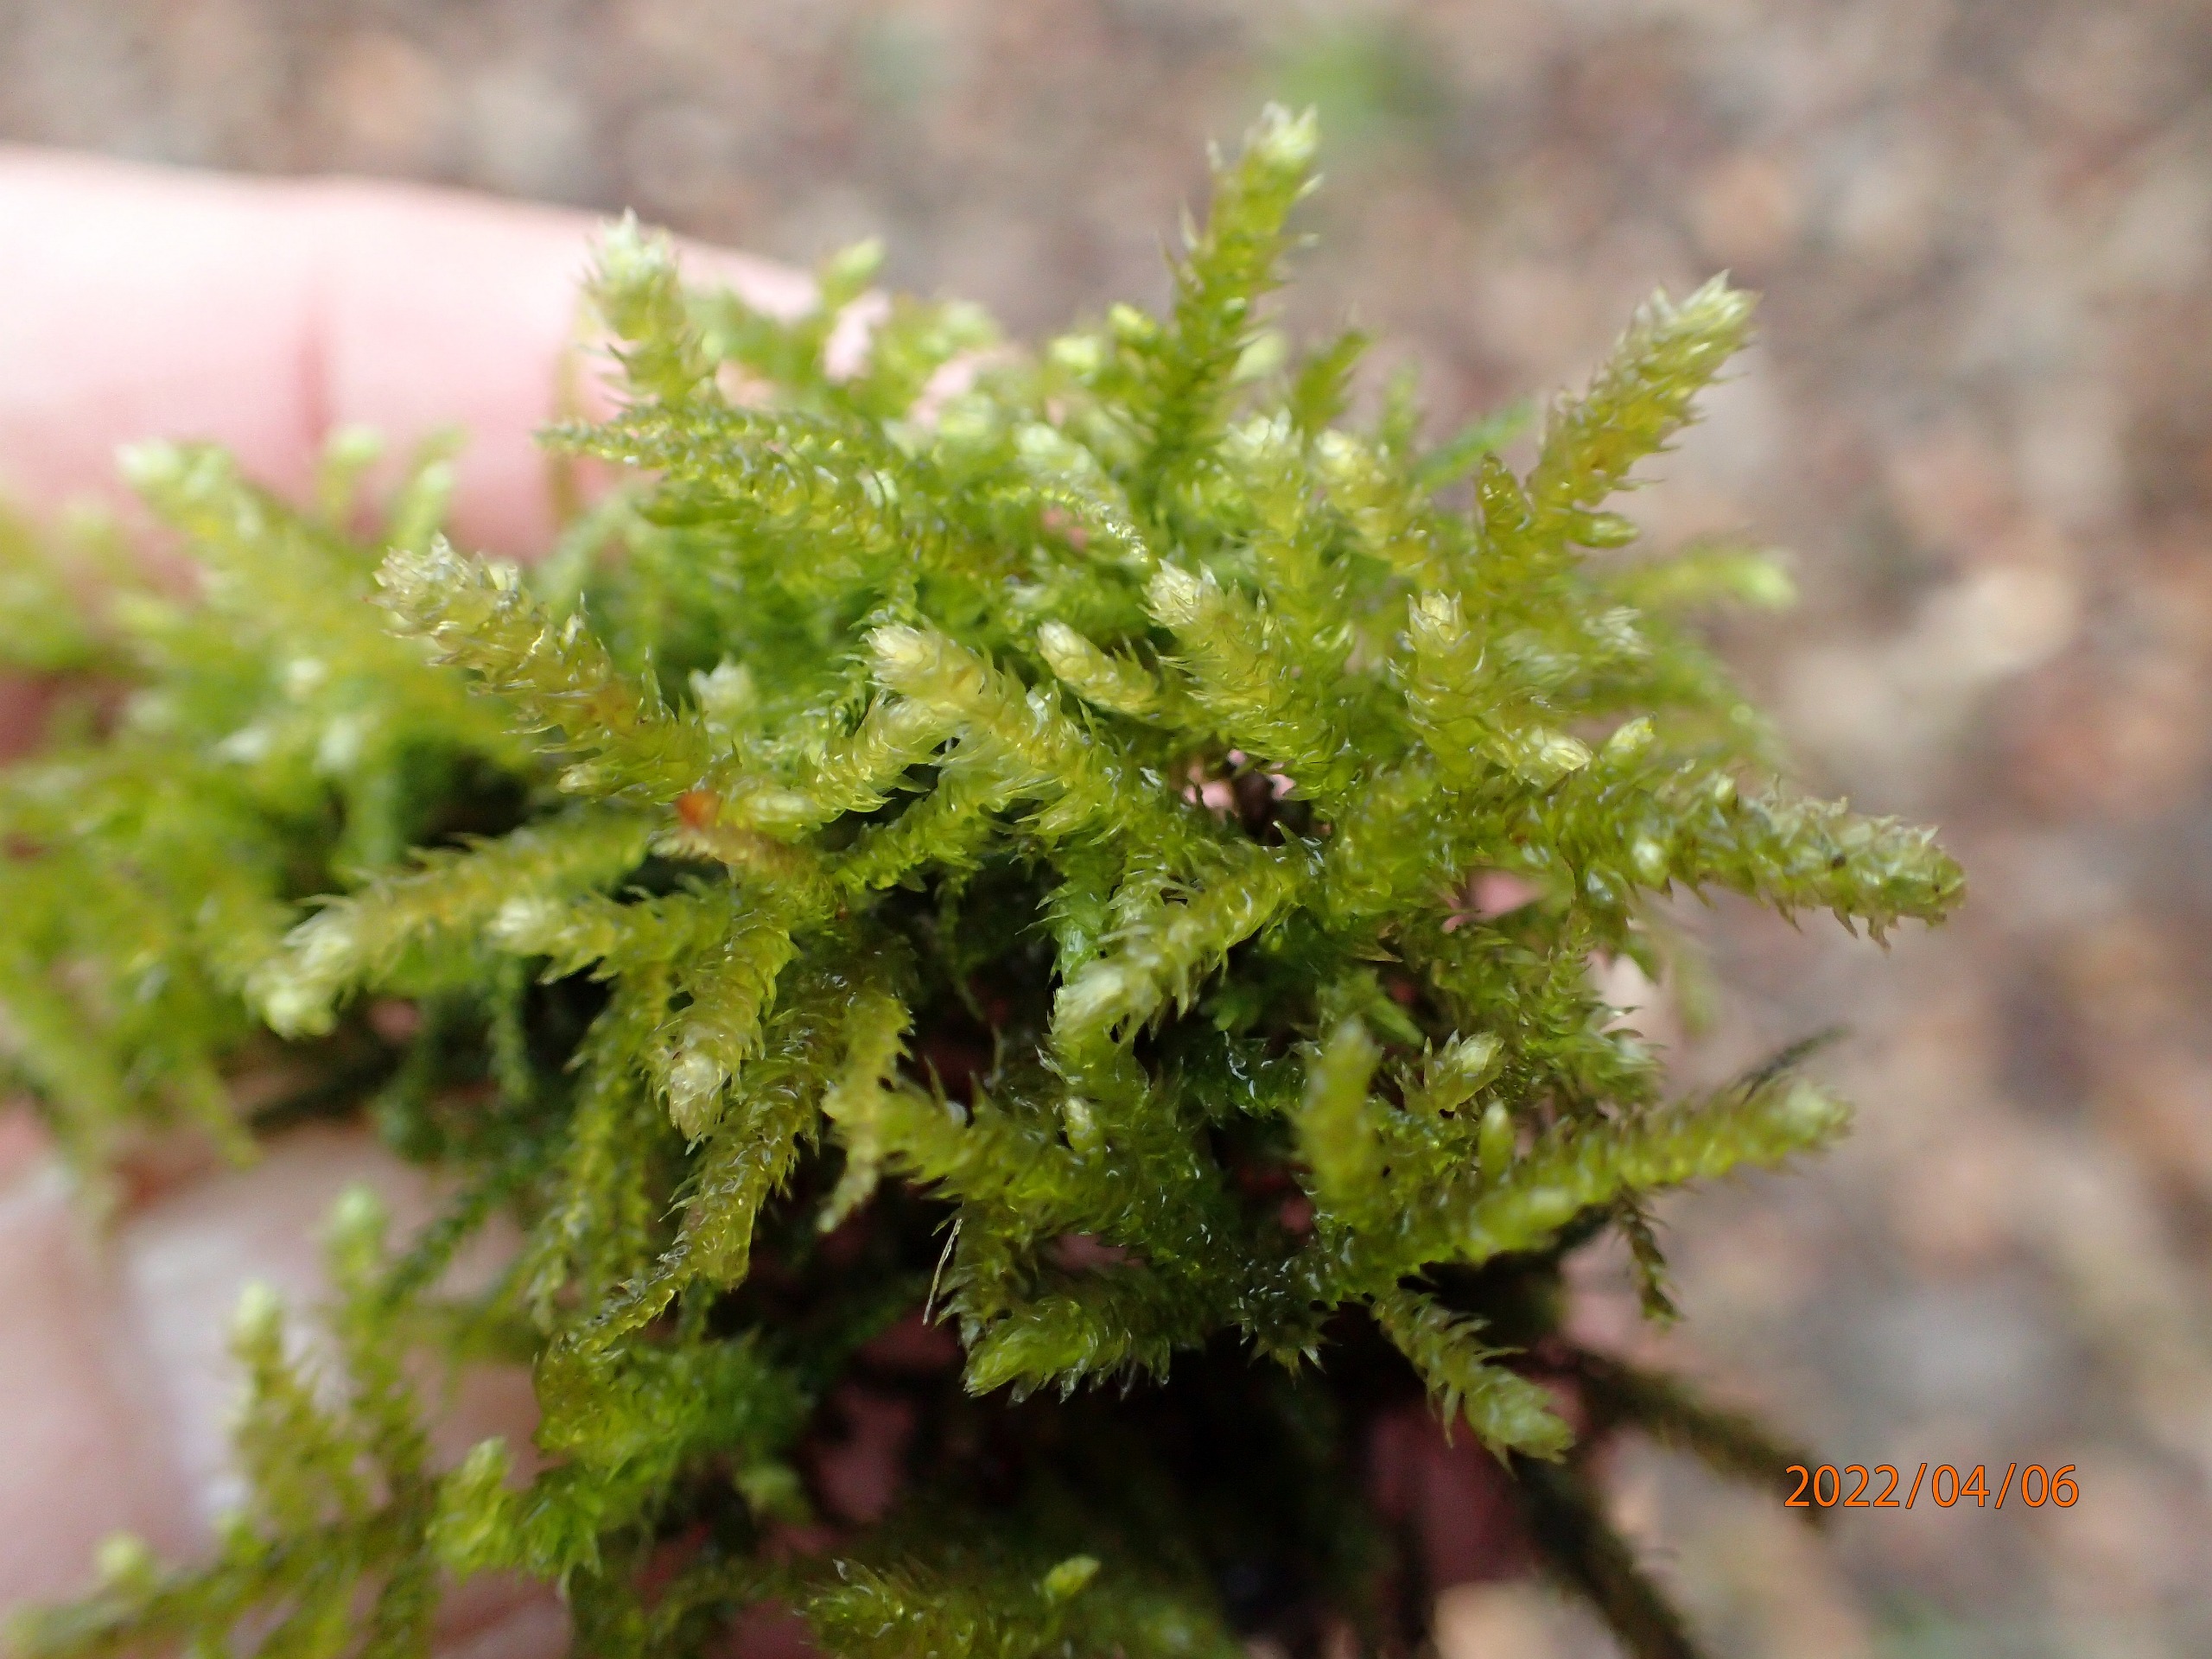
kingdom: Plantae
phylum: Bryophyta
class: Bryopsida
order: Hypnales
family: Brachytheciaceae
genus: Eurhynchium
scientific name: Eurhynchium striatum
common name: Stribet næbmos
